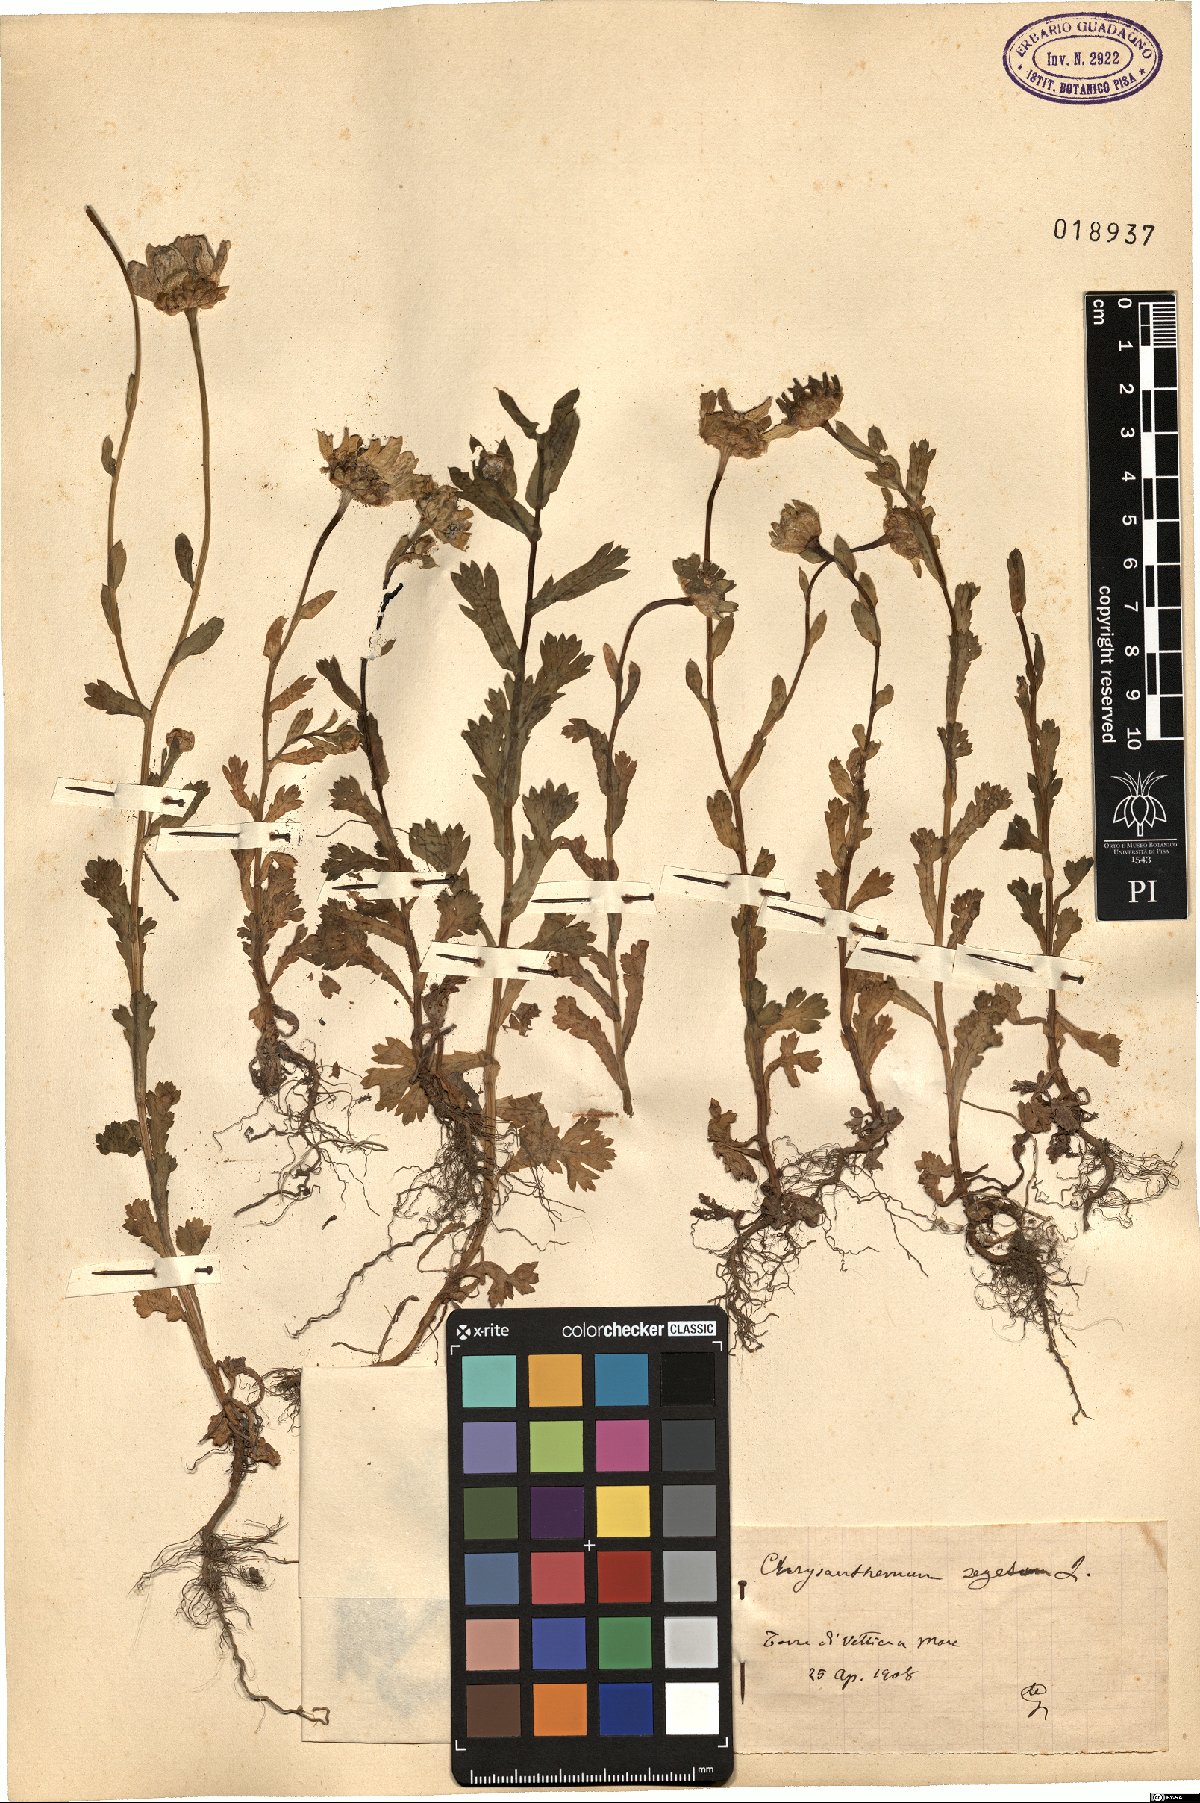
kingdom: Plantae
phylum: Tracheophyta
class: Magnoliopsida
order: Asterales
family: Asteraceae
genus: Glebionis
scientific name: Glebionis segetum
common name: Corndaisy
